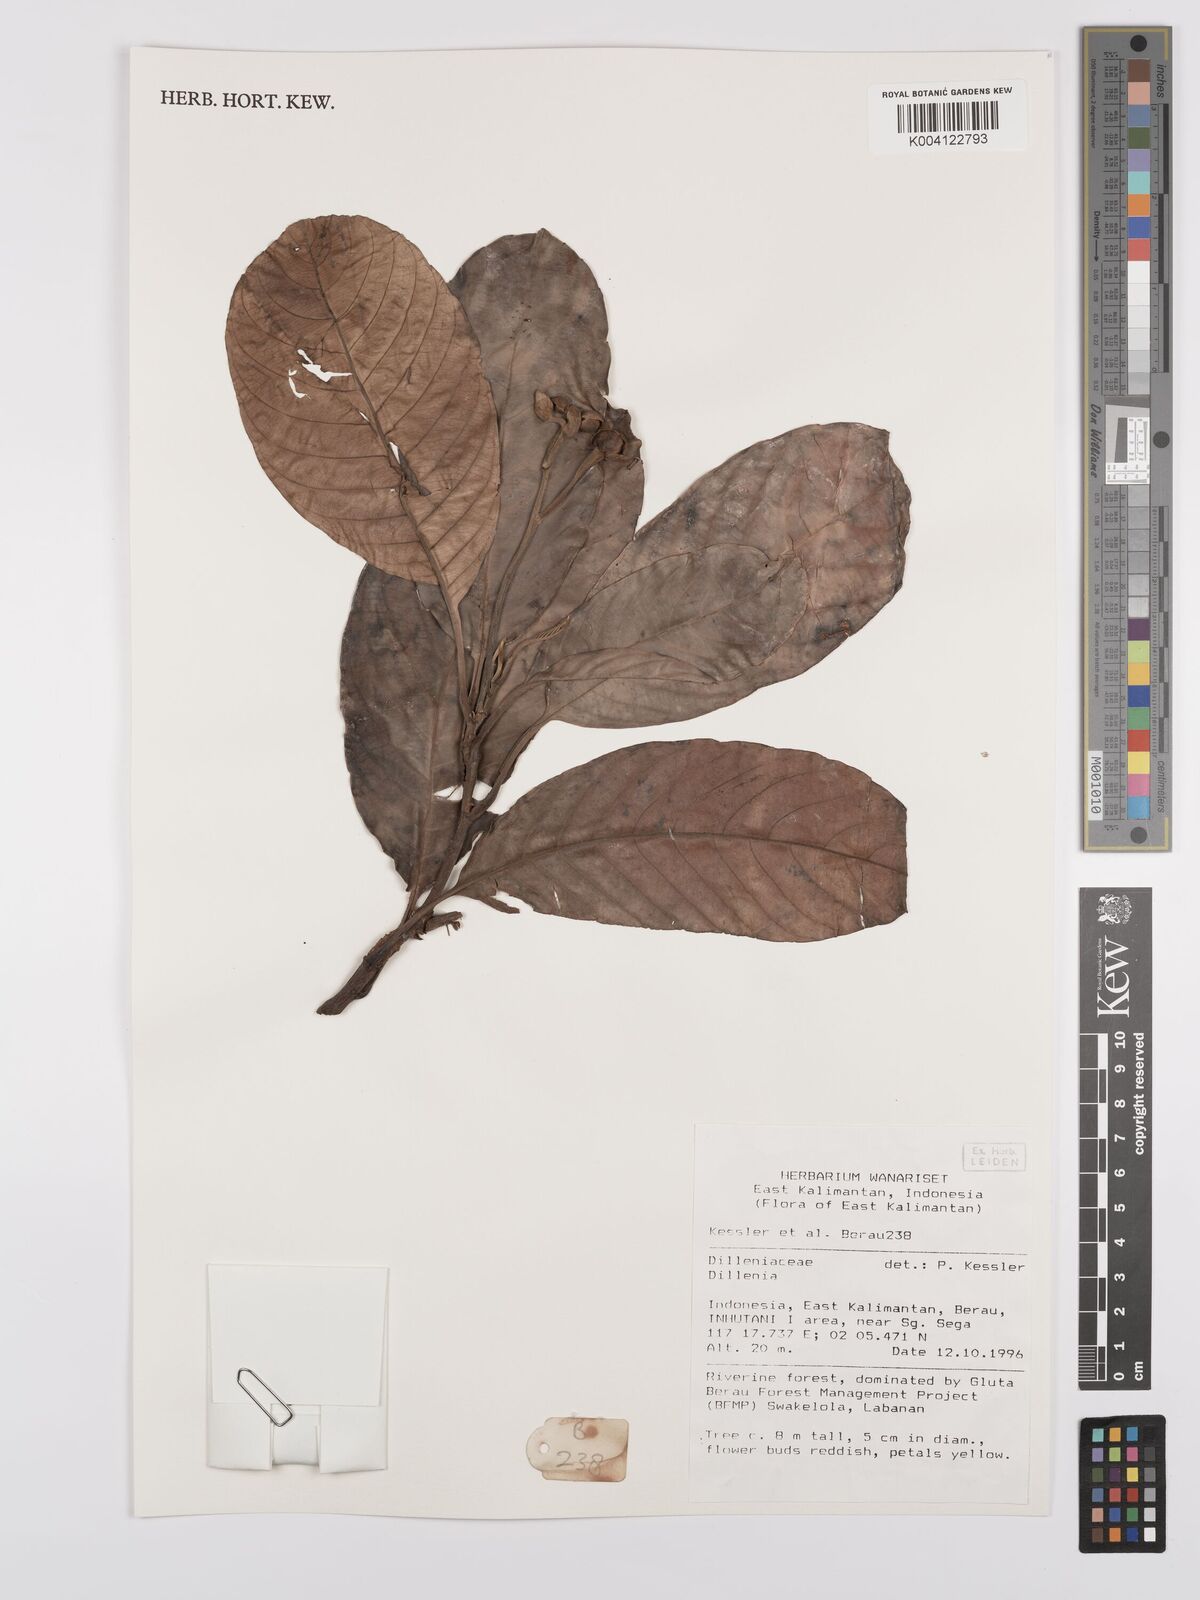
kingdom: Plantae
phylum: Tracheophyta
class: Magnoliopsida
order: Dilleniales
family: Dilleniaceae
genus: Dillenia
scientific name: Dillenia
